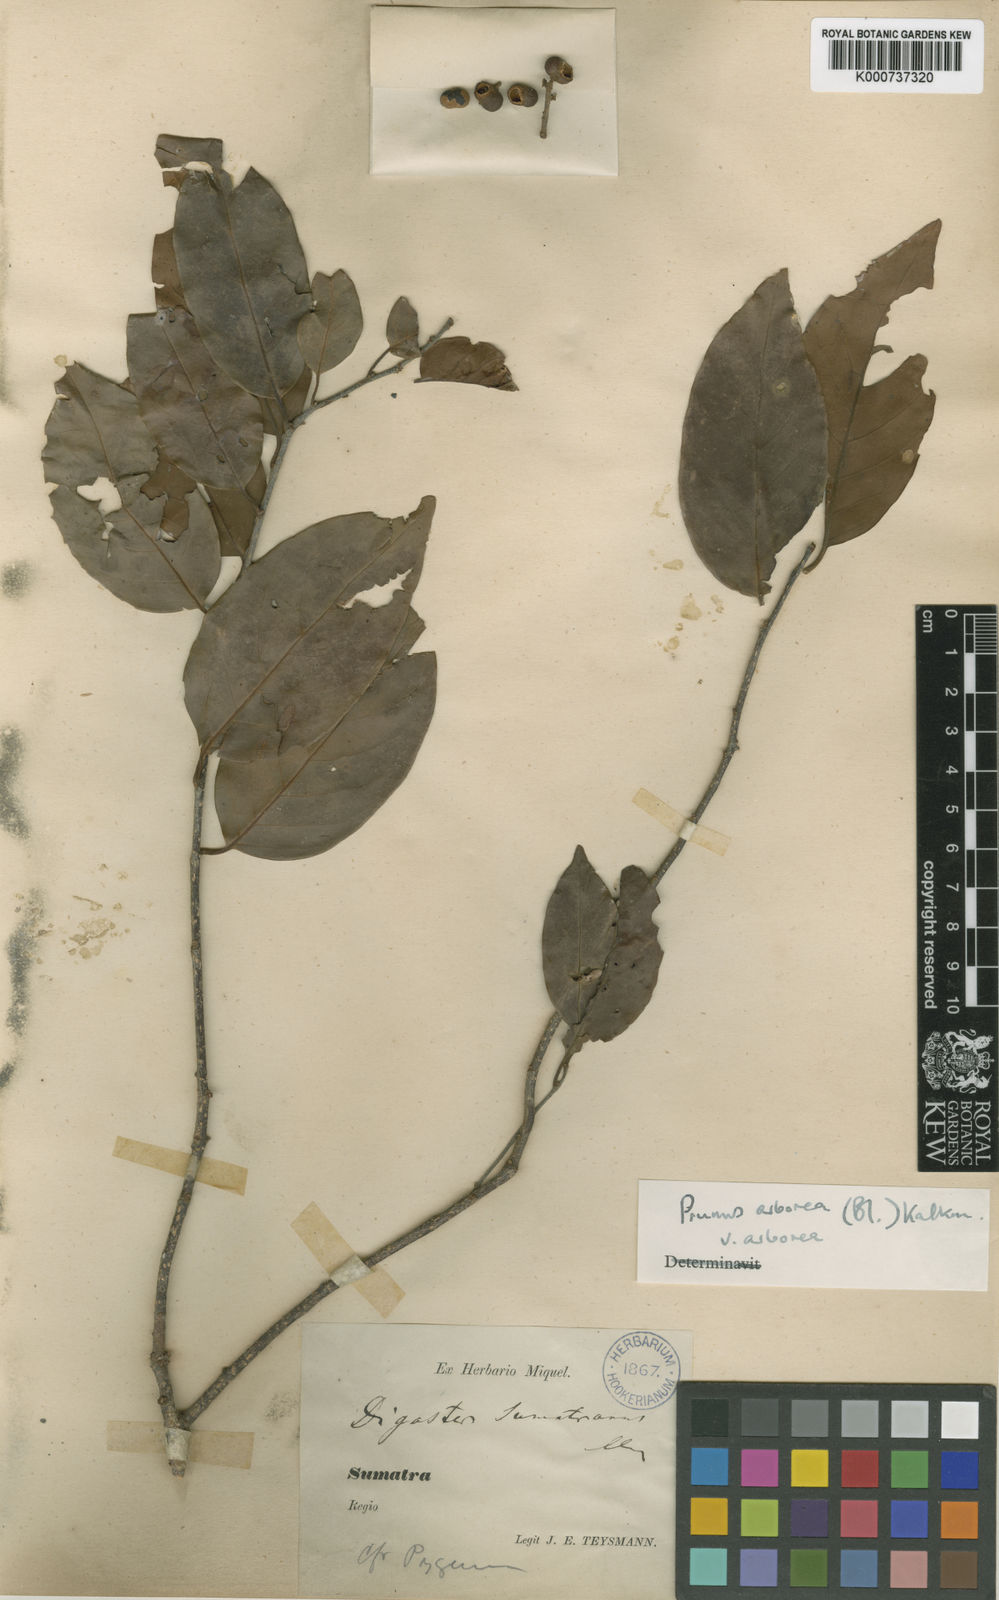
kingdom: Plantae
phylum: Tracheophyta
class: Magnoliopsida
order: Rosales
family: Rosaceae
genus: Prunus
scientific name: Prunus arborea
